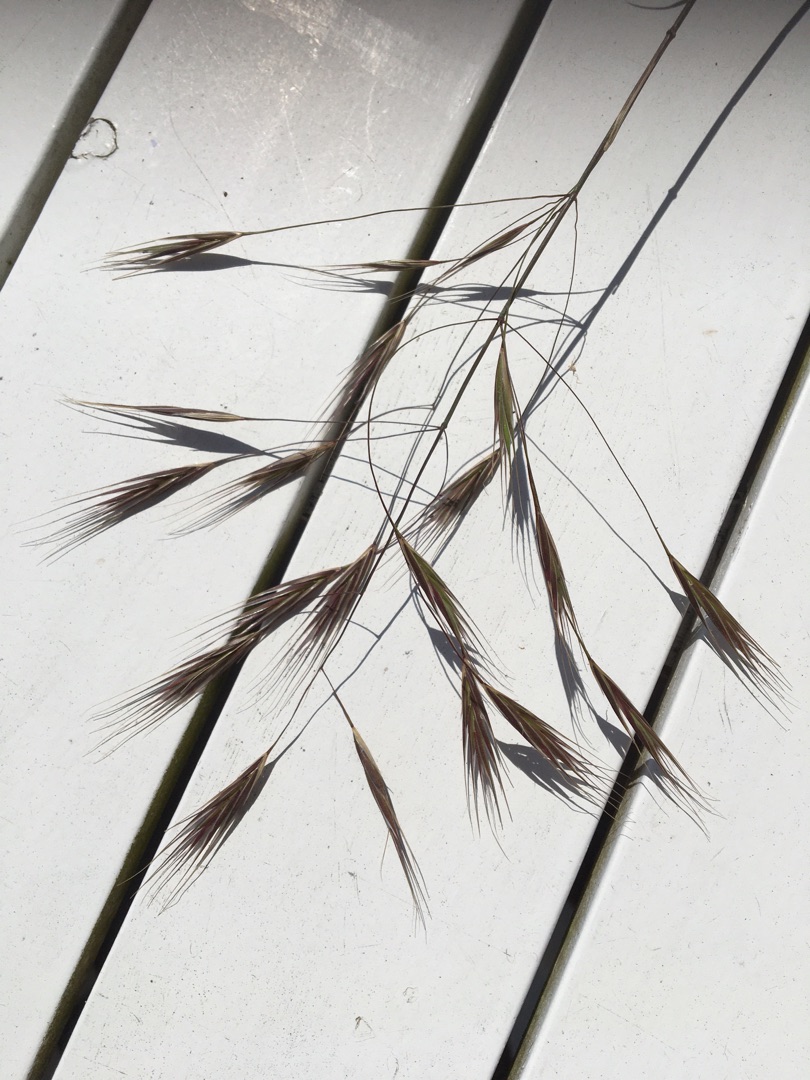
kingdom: Plantae
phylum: Tracheophyta
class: Liliopsida
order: Poales
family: Poaceae
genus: Bromus
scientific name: Bromus sterilis
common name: Gold hejre
